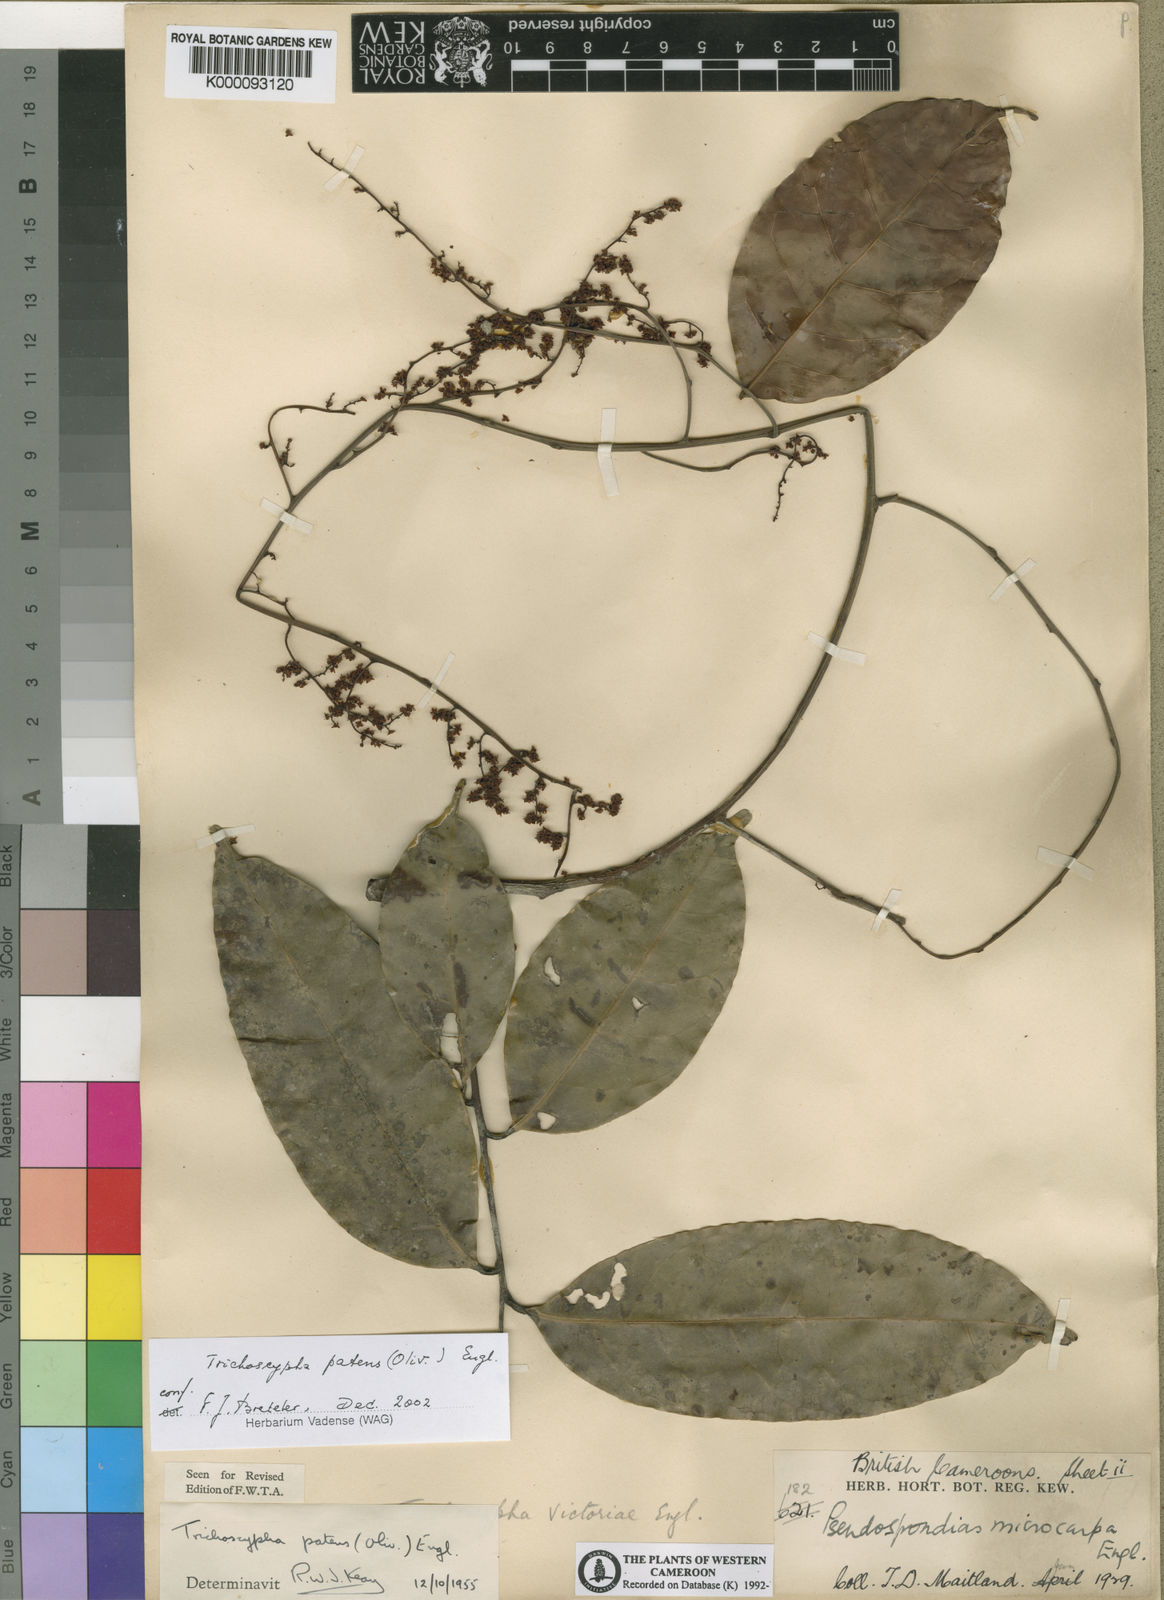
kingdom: Plantae
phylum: Tracheophyta
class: Magnoliopsida
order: Sapindales
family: Anacardiaceae
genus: Trichoscypha
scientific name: Trichoscypha patens
